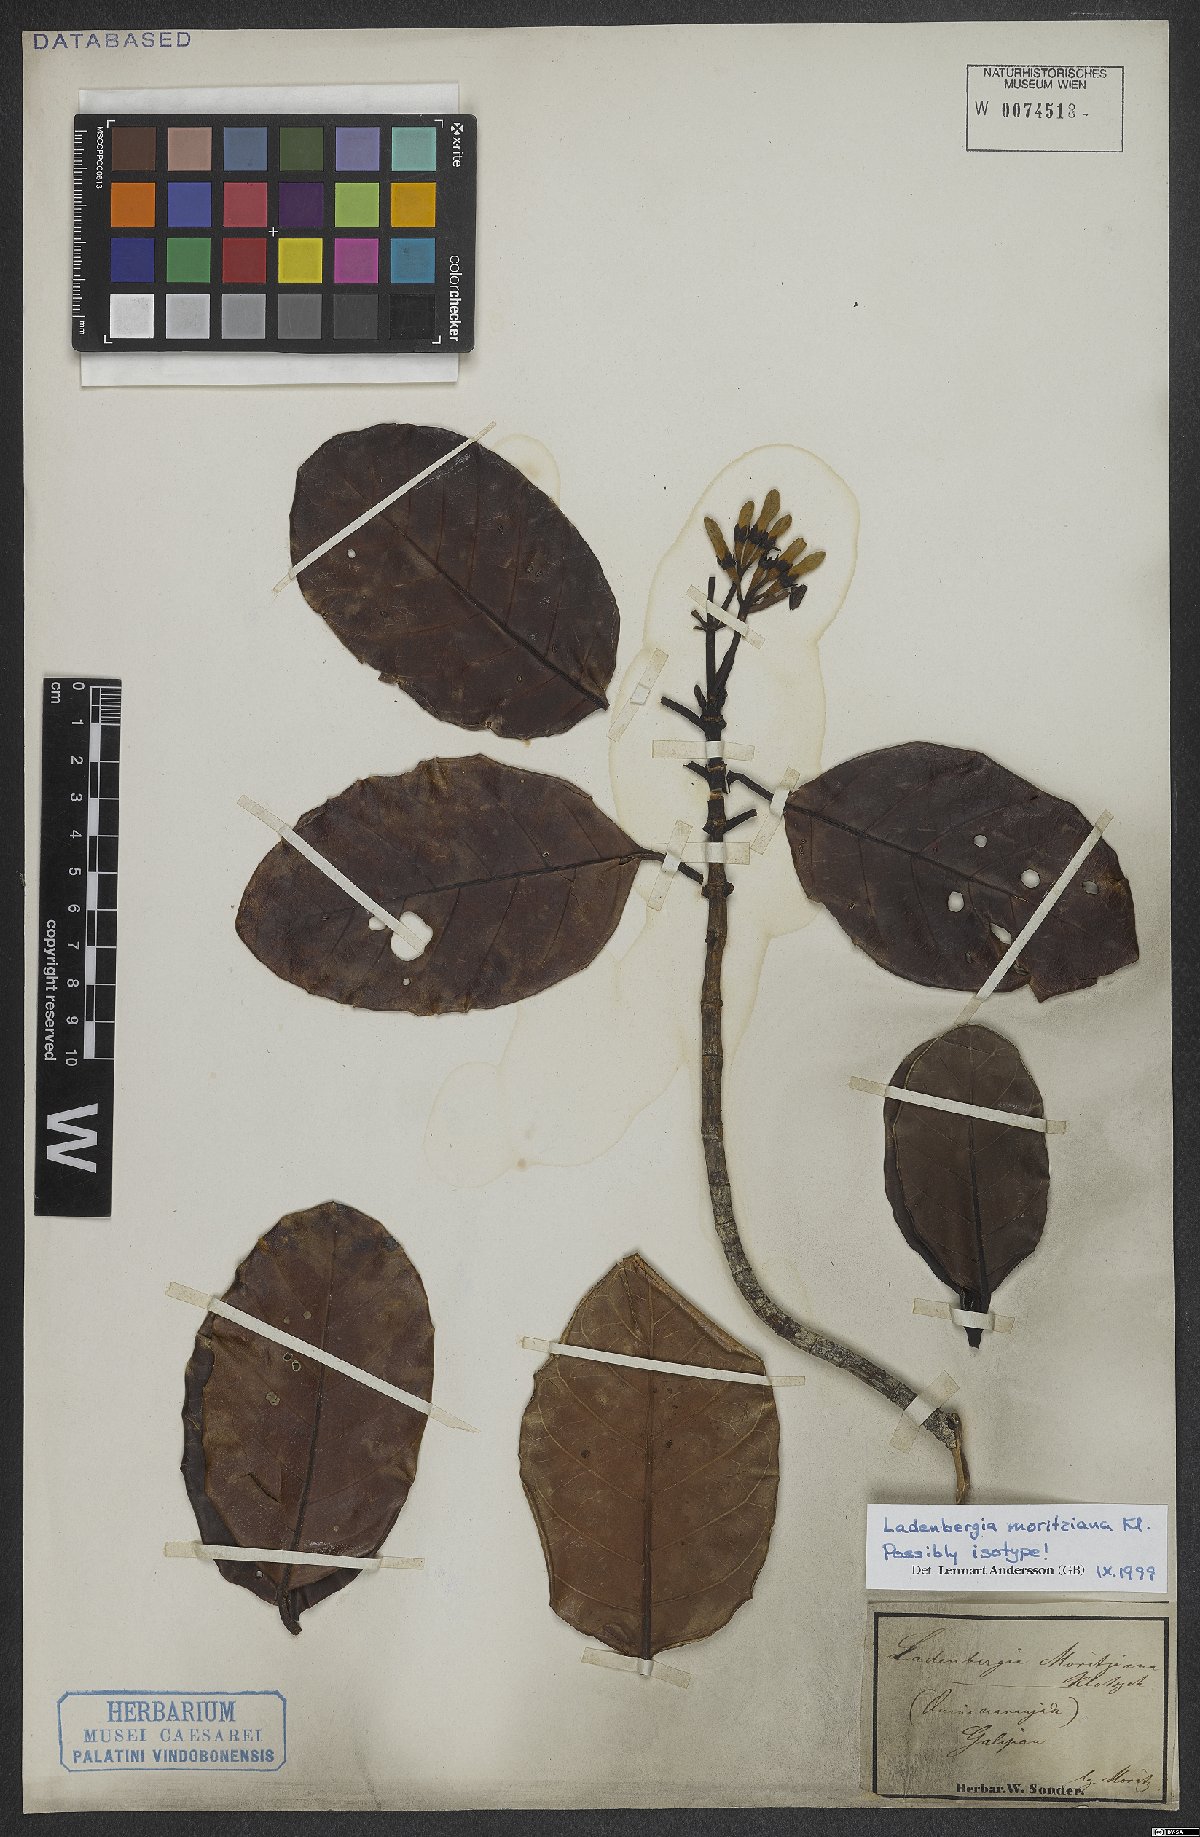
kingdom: Plantae
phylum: Tracheophyta
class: Magnoliopsida
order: Gentianales
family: Rubiaceae
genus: Ladenbergia
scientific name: Ladenbergia moritziana
